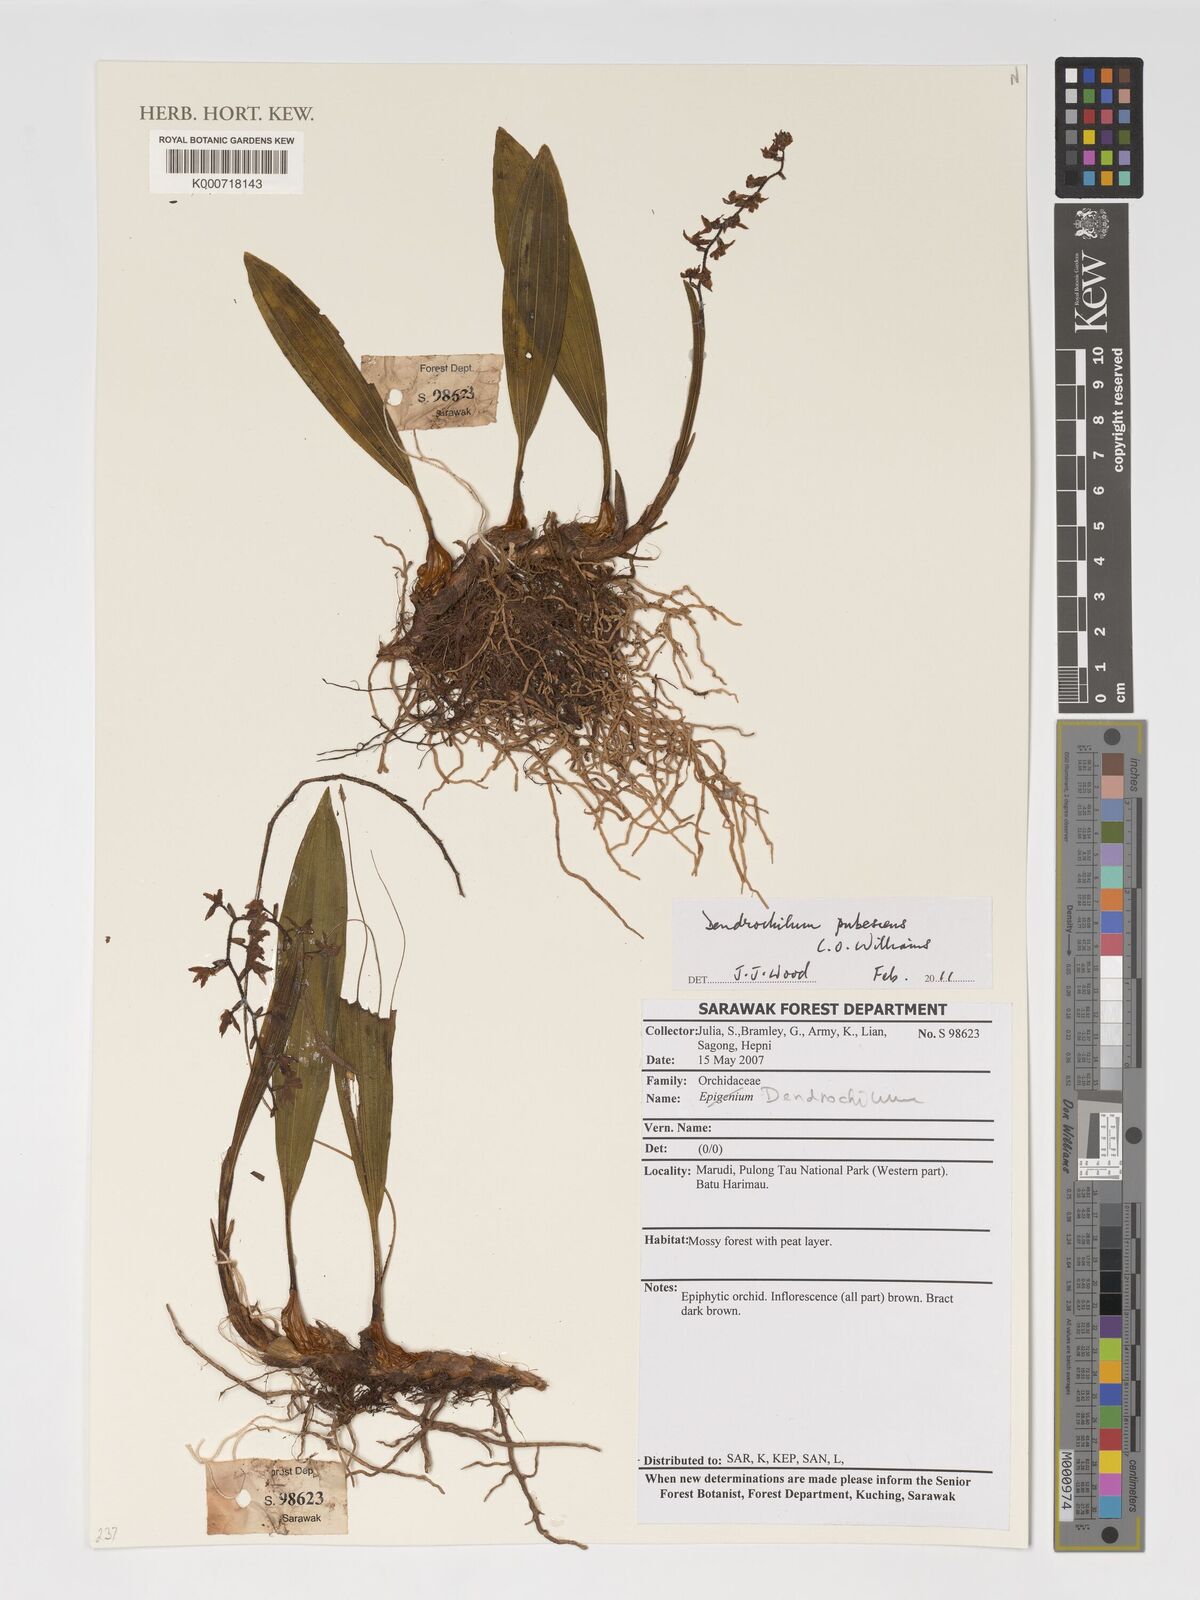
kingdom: Plantae
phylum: Tracheophyta
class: Liliopsida
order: Asparagales
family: Orchidaceae
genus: Coelogyne
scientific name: Coelogyne pubescens
